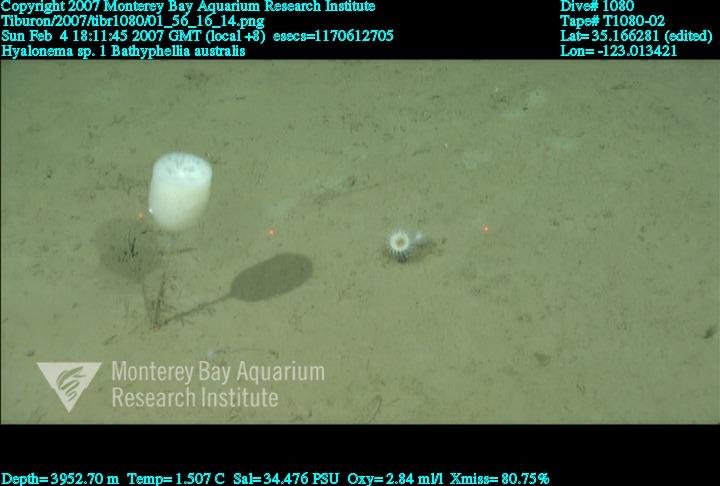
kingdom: Animalia
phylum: Porifera
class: Hexactinellida
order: Amphidiscosida
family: Hyalonematidae
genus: Hyalonema
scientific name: Hyalonema
